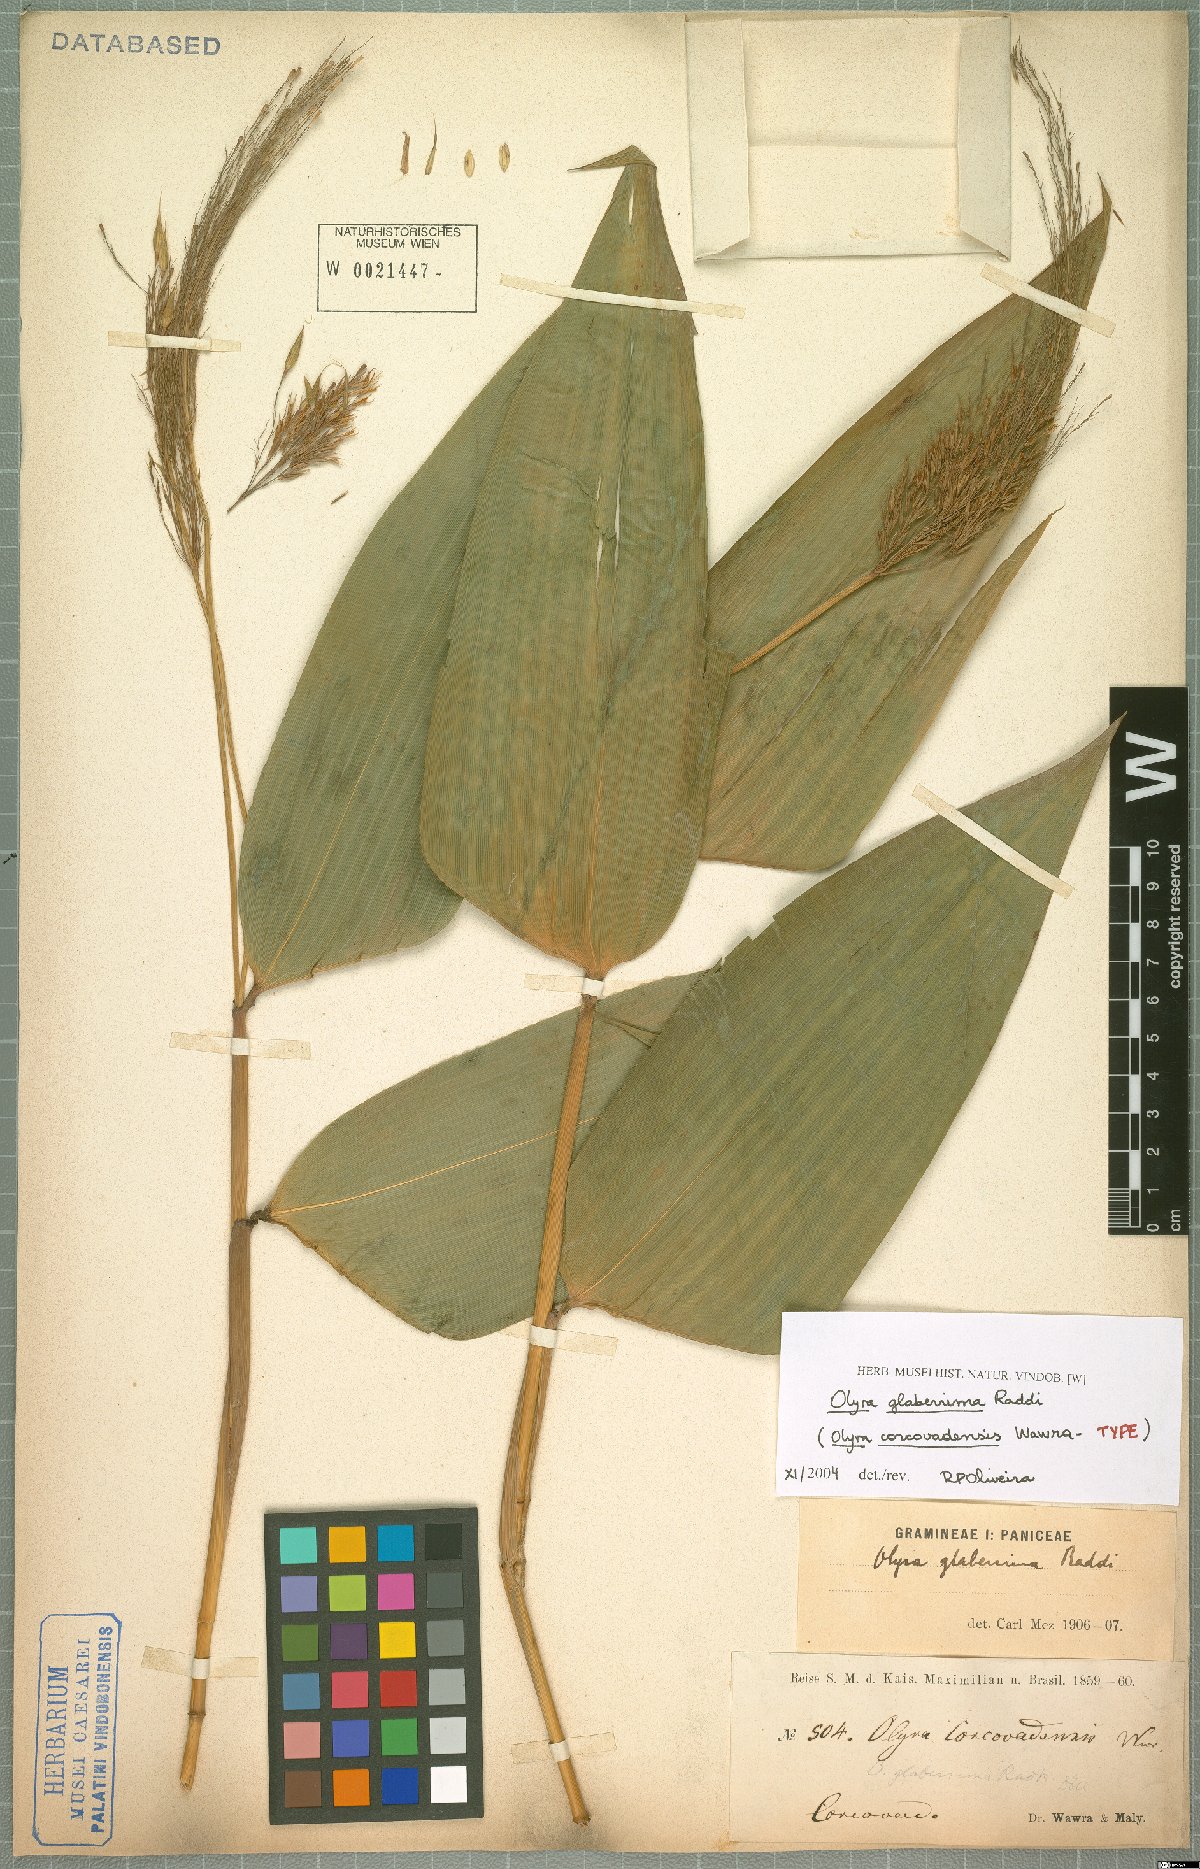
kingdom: Plantae
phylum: Tracheophyta
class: Liliopsida
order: Poales
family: Poaceae
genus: Olyra
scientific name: Olyra glaberrima
